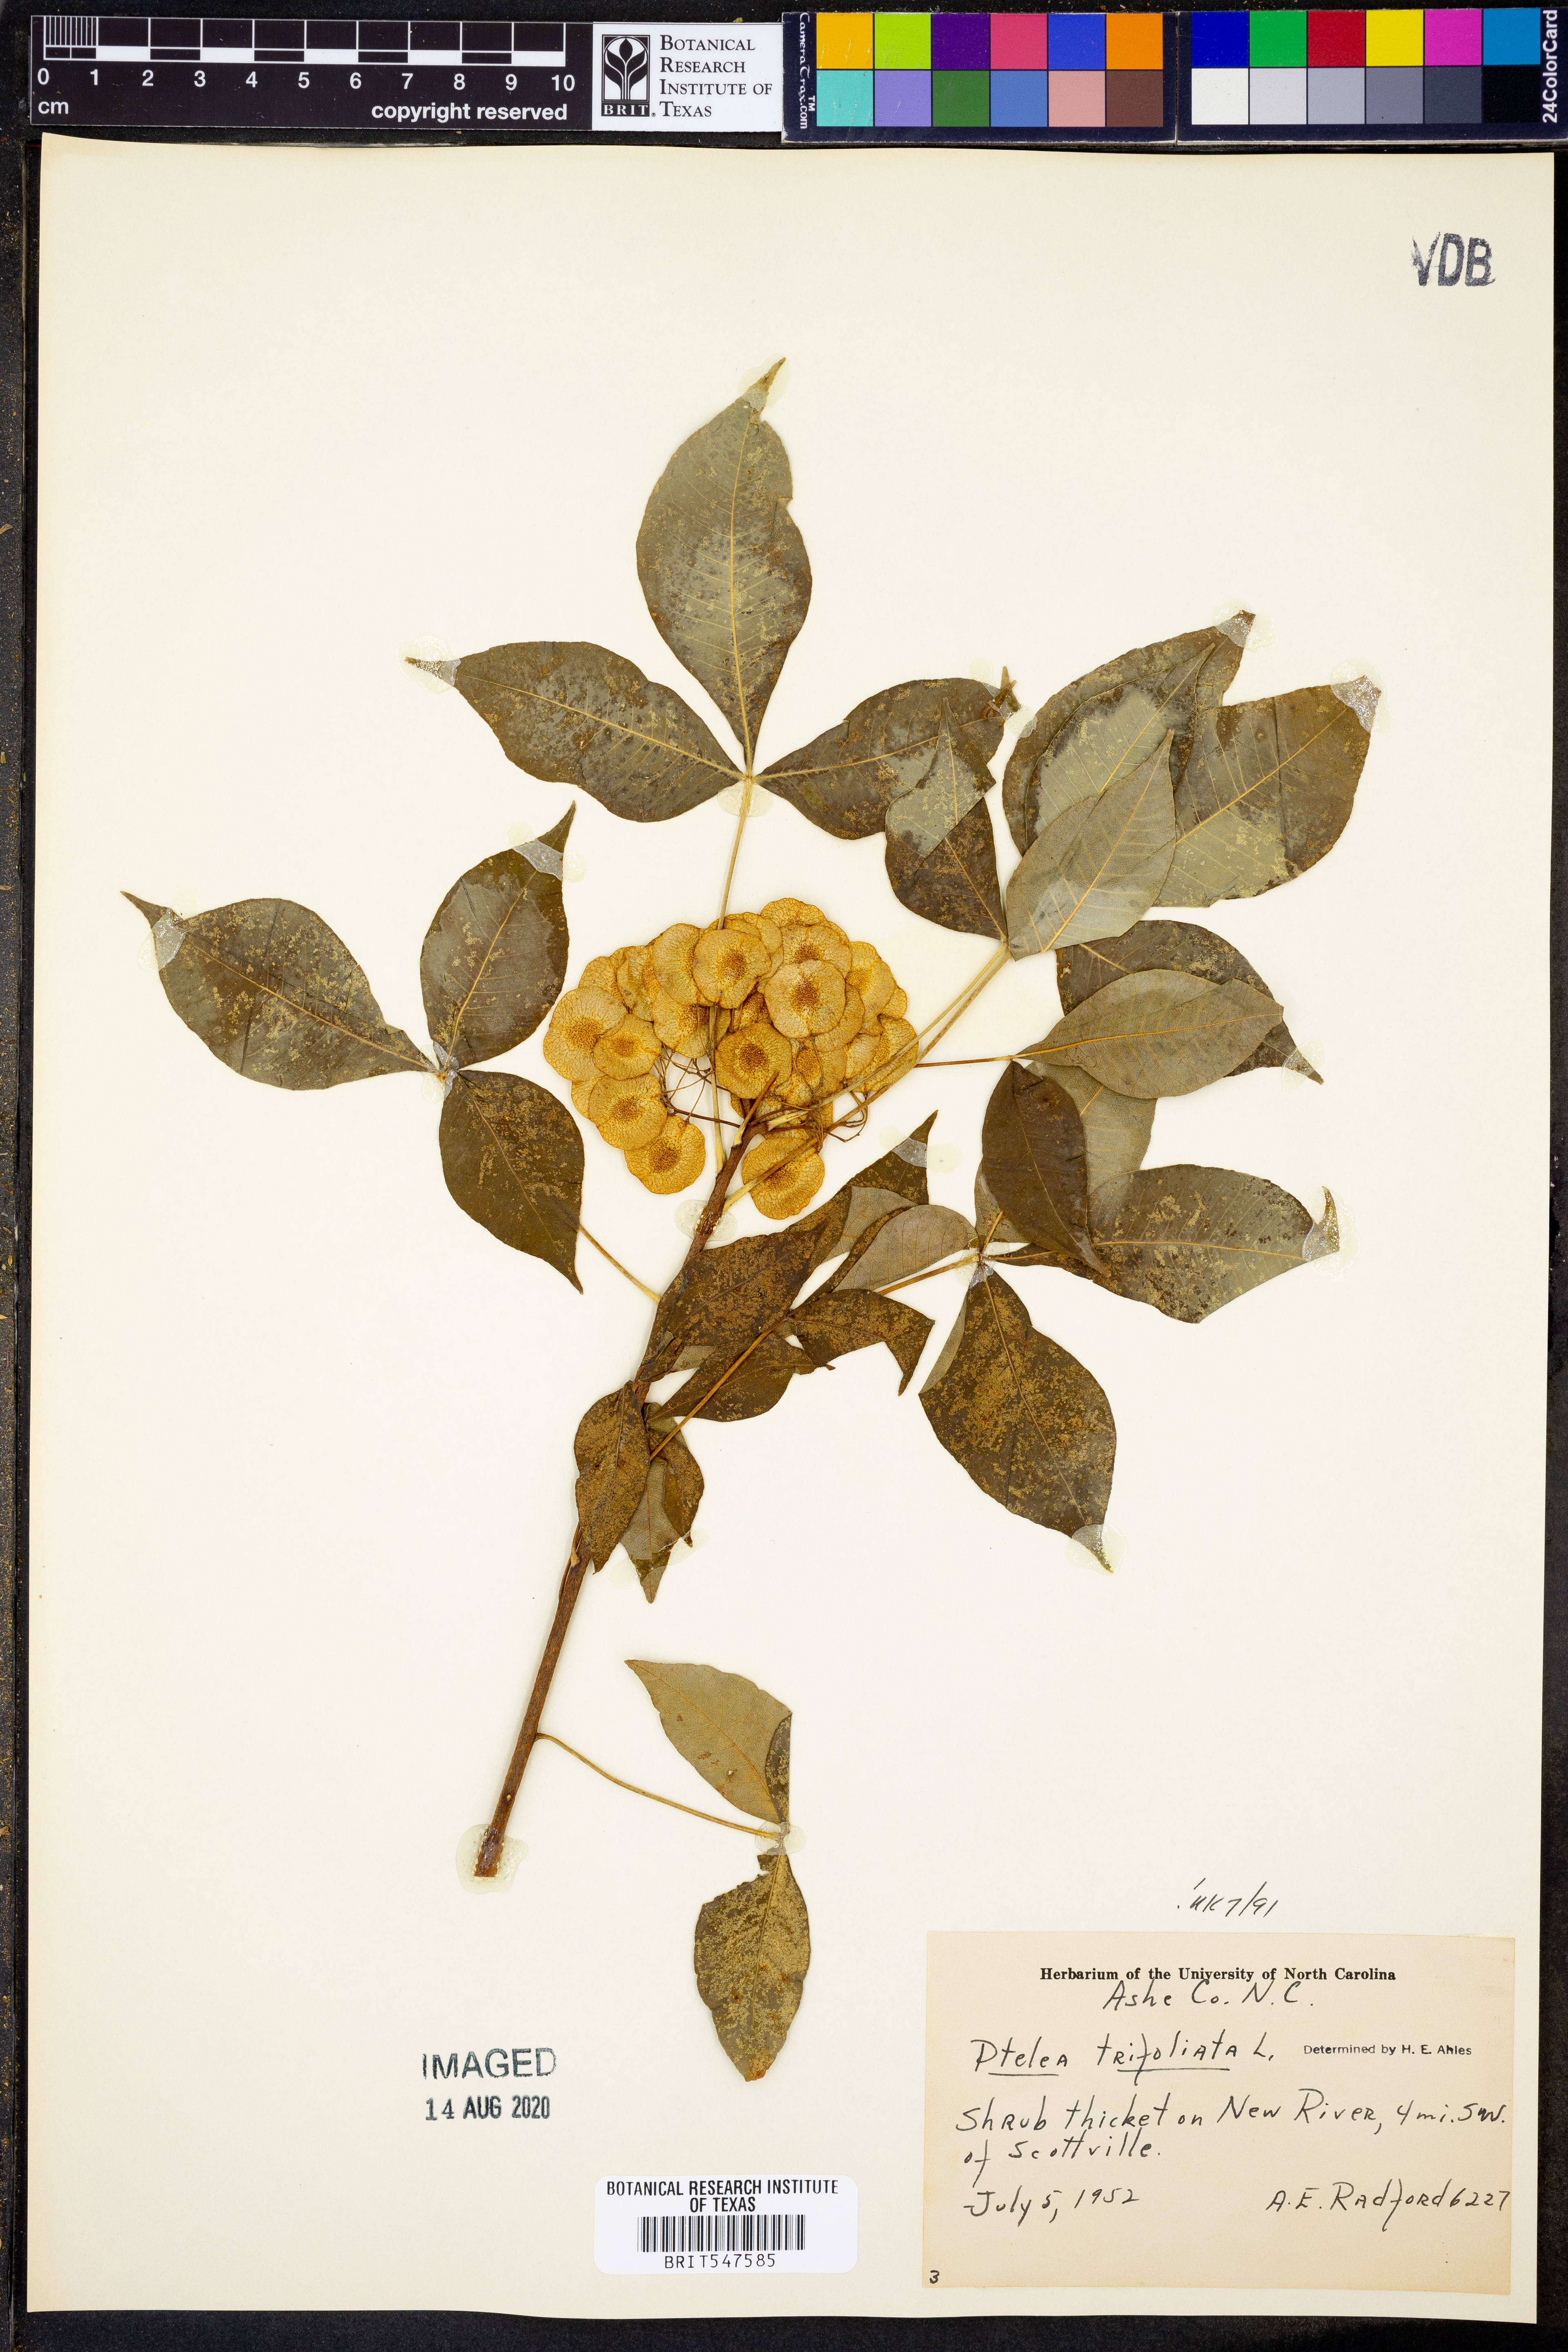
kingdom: Plantae
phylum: Tracheophyta
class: Magnoliopsida
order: Sapindales
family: Rutaceae
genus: Ptelea
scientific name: Ptelea trifoliata
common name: Common hop-tree
